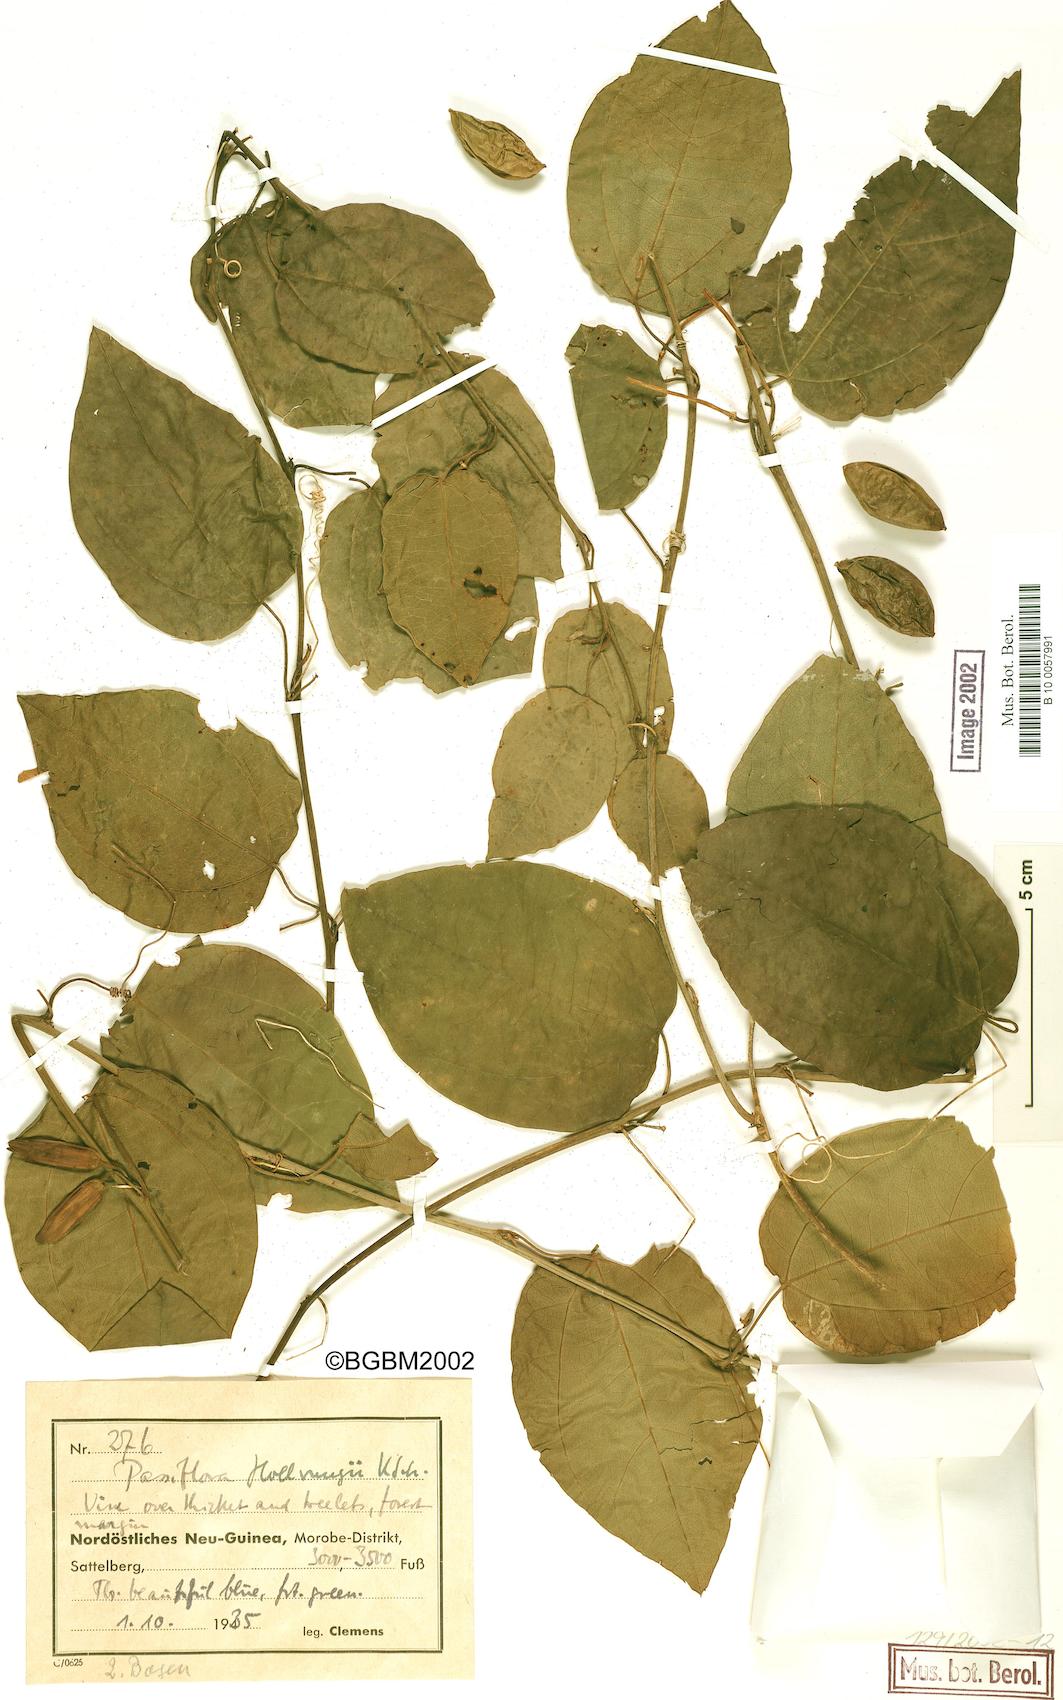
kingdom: Plantae
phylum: Tracheophyta
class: Magnoliopsida
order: Malpighiales
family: Passifloraceae
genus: Passiflora
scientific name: Passiflora hollrungii
